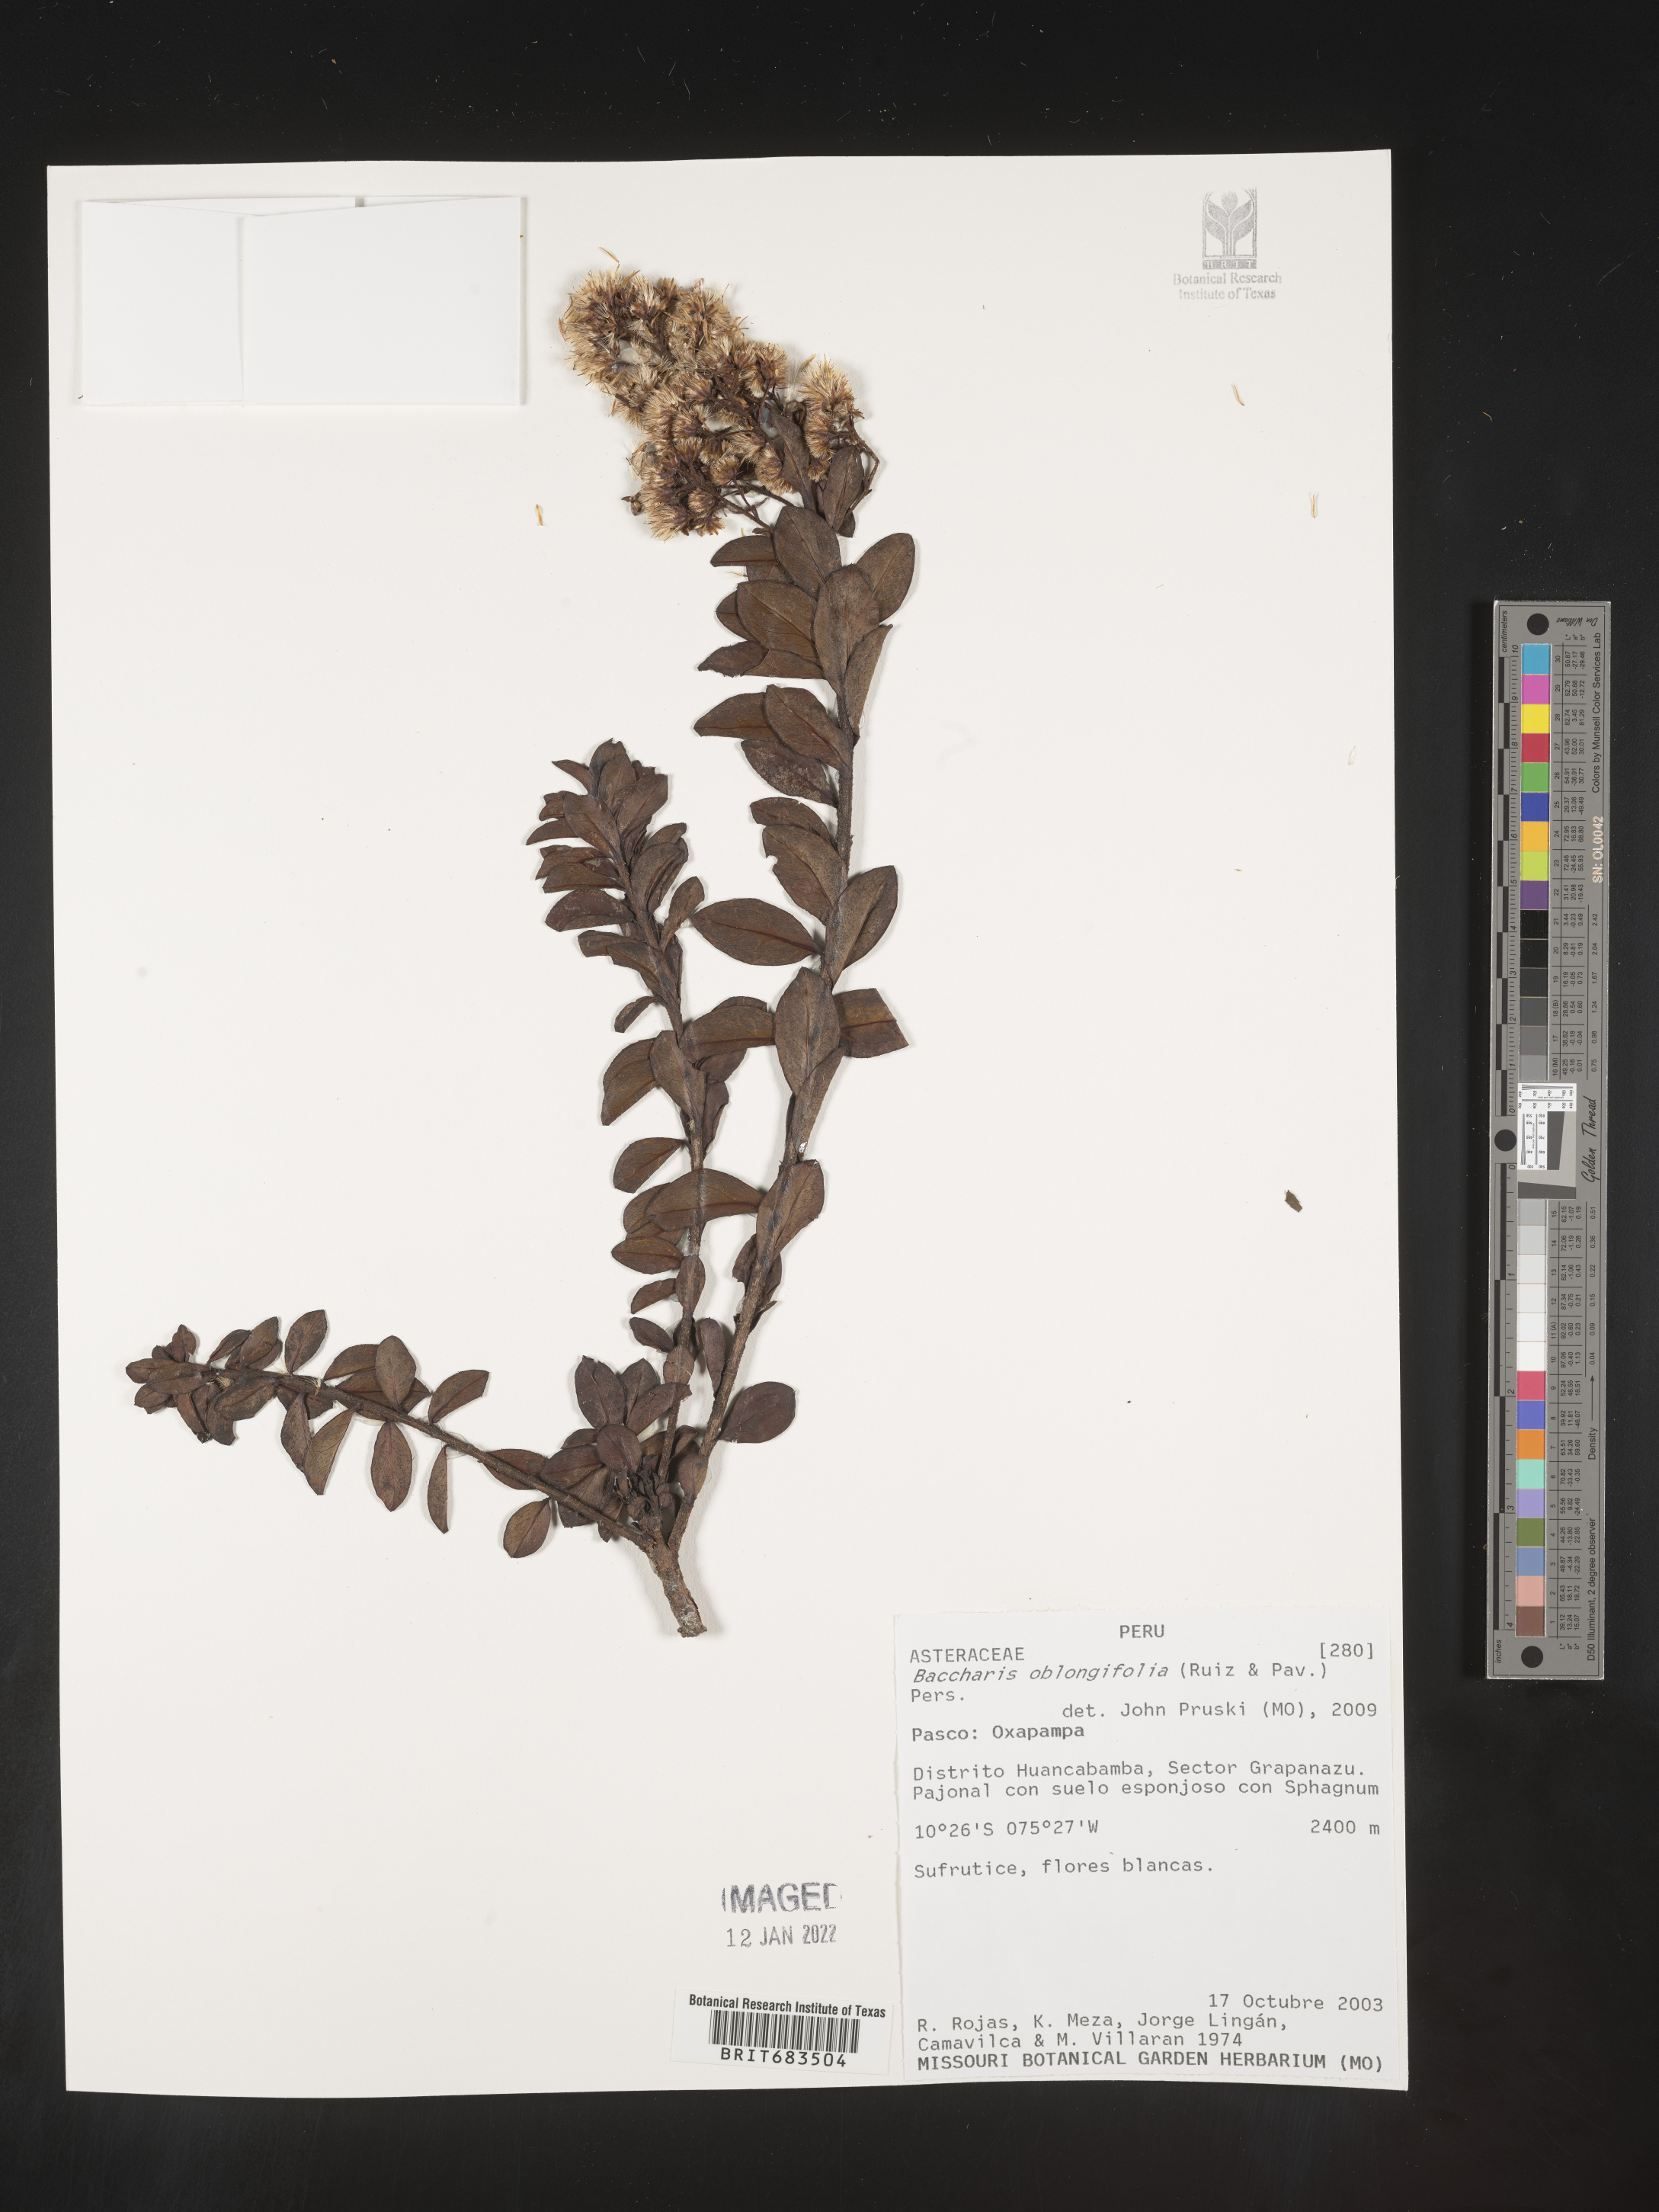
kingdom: Plantae
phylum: Tracheophyta
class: Magnoliopsida
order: Asterales
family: Asteraceae
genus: Baccharis
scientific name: Baccharis
